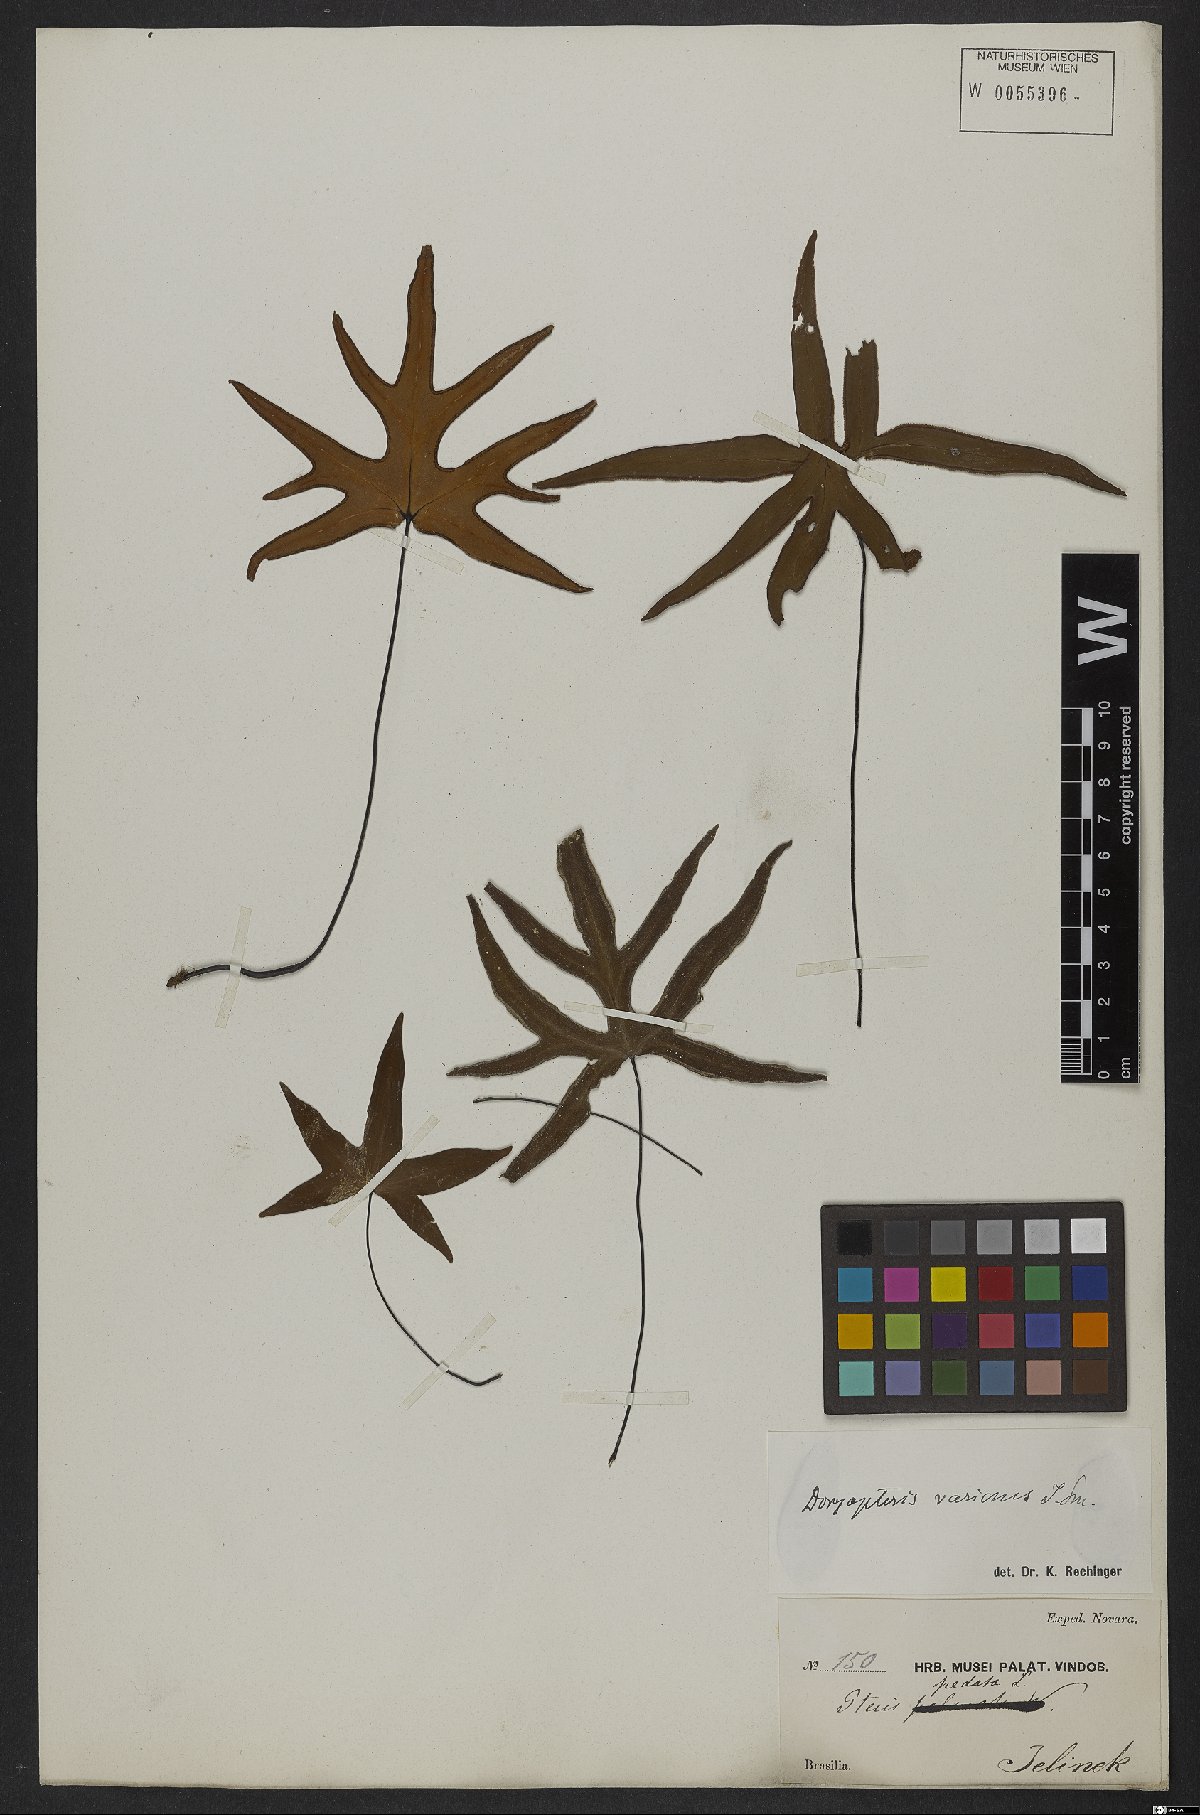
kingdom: Plantae
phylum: Tracheophyta
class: Polypodiopsida
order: Polypodiales
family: Pteridaceae
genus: Doryopteris
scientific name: Doryopteris varians
